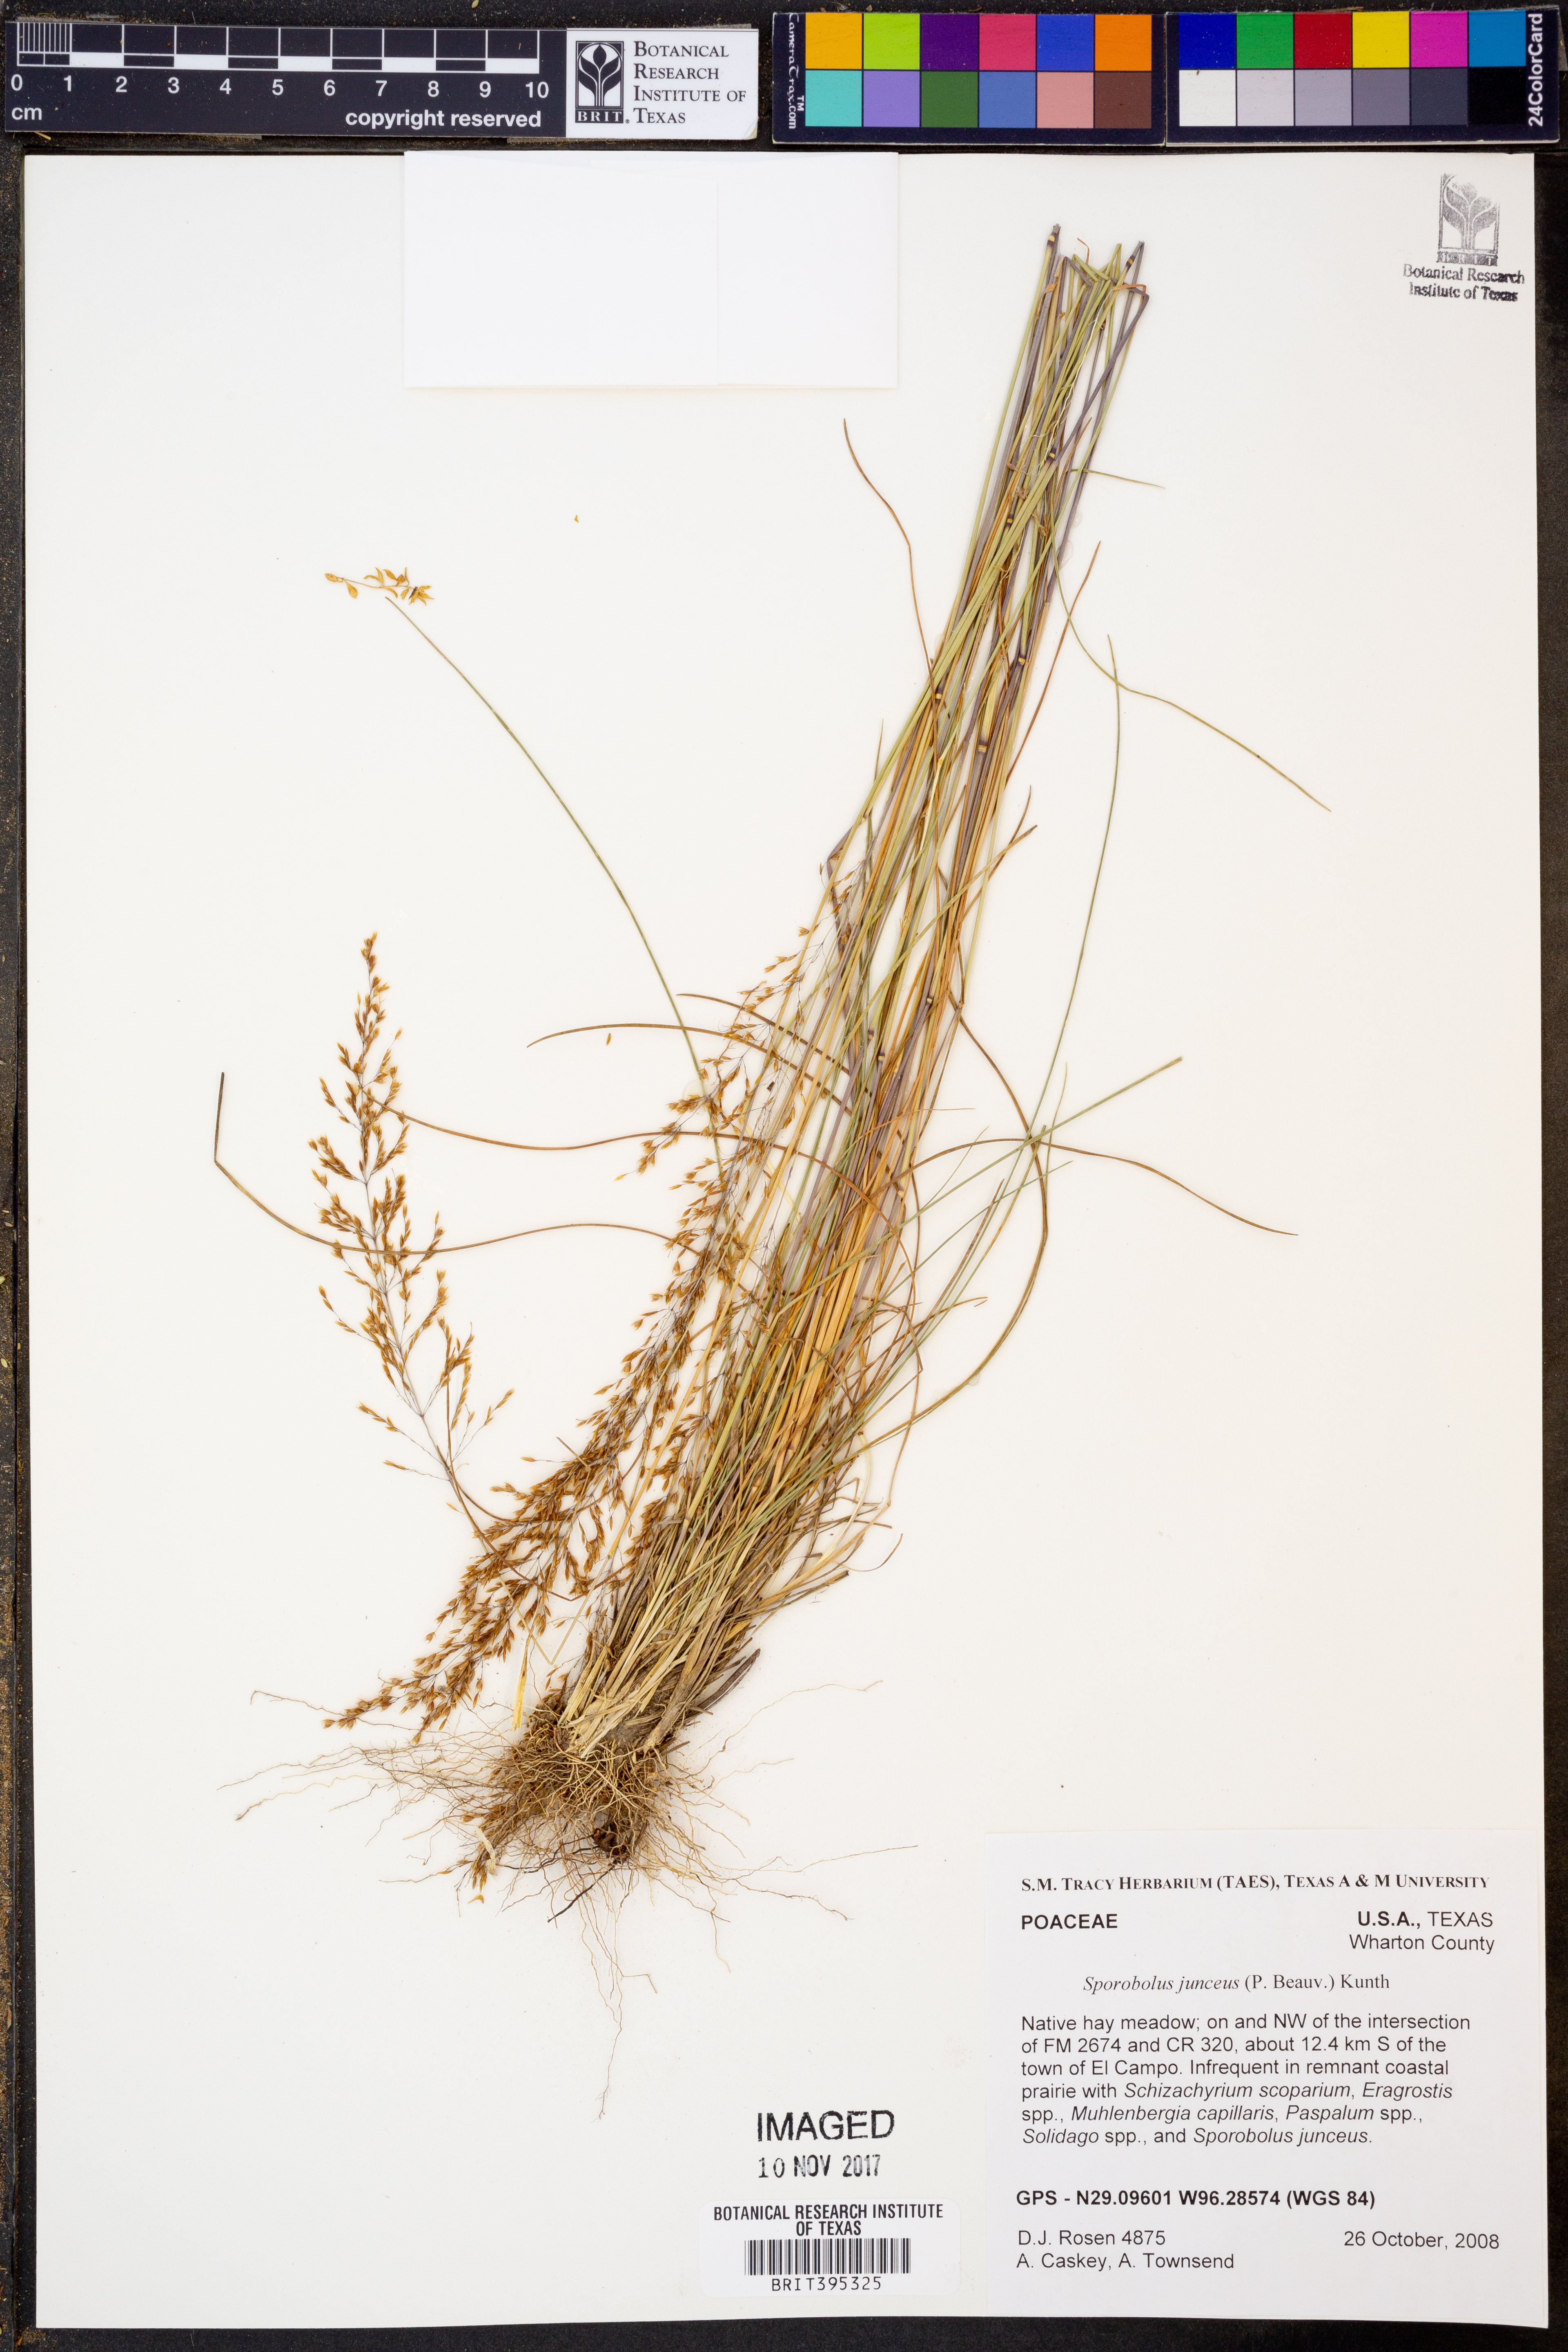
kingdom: Plantae
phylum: Tracheophyta
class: Liliopsida
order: Poales
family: Poaceae
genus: Sporobolus
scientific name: Sporobolus junceus
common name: Lizard grass
